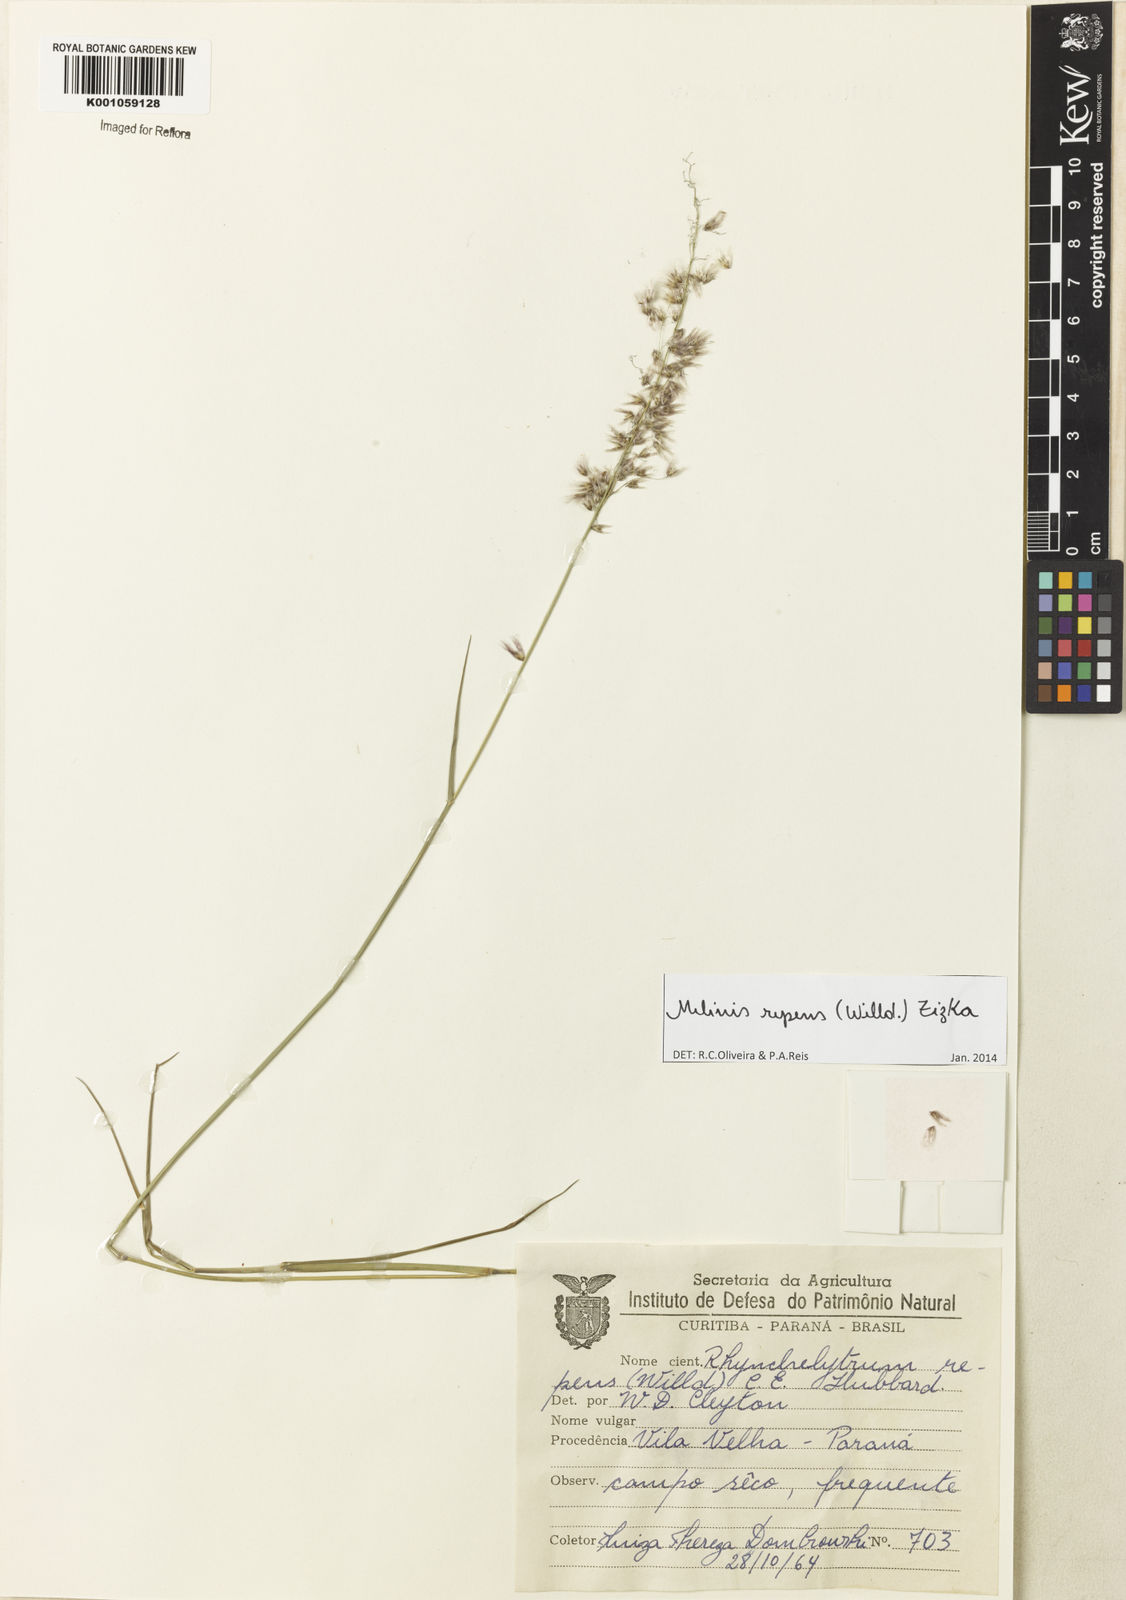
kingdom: Plantae
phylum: Tracheophyta
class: Liliopsida
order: Poales
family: Poaceae
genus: Melinis
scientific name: Melinis repens
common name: Rose natal grass
